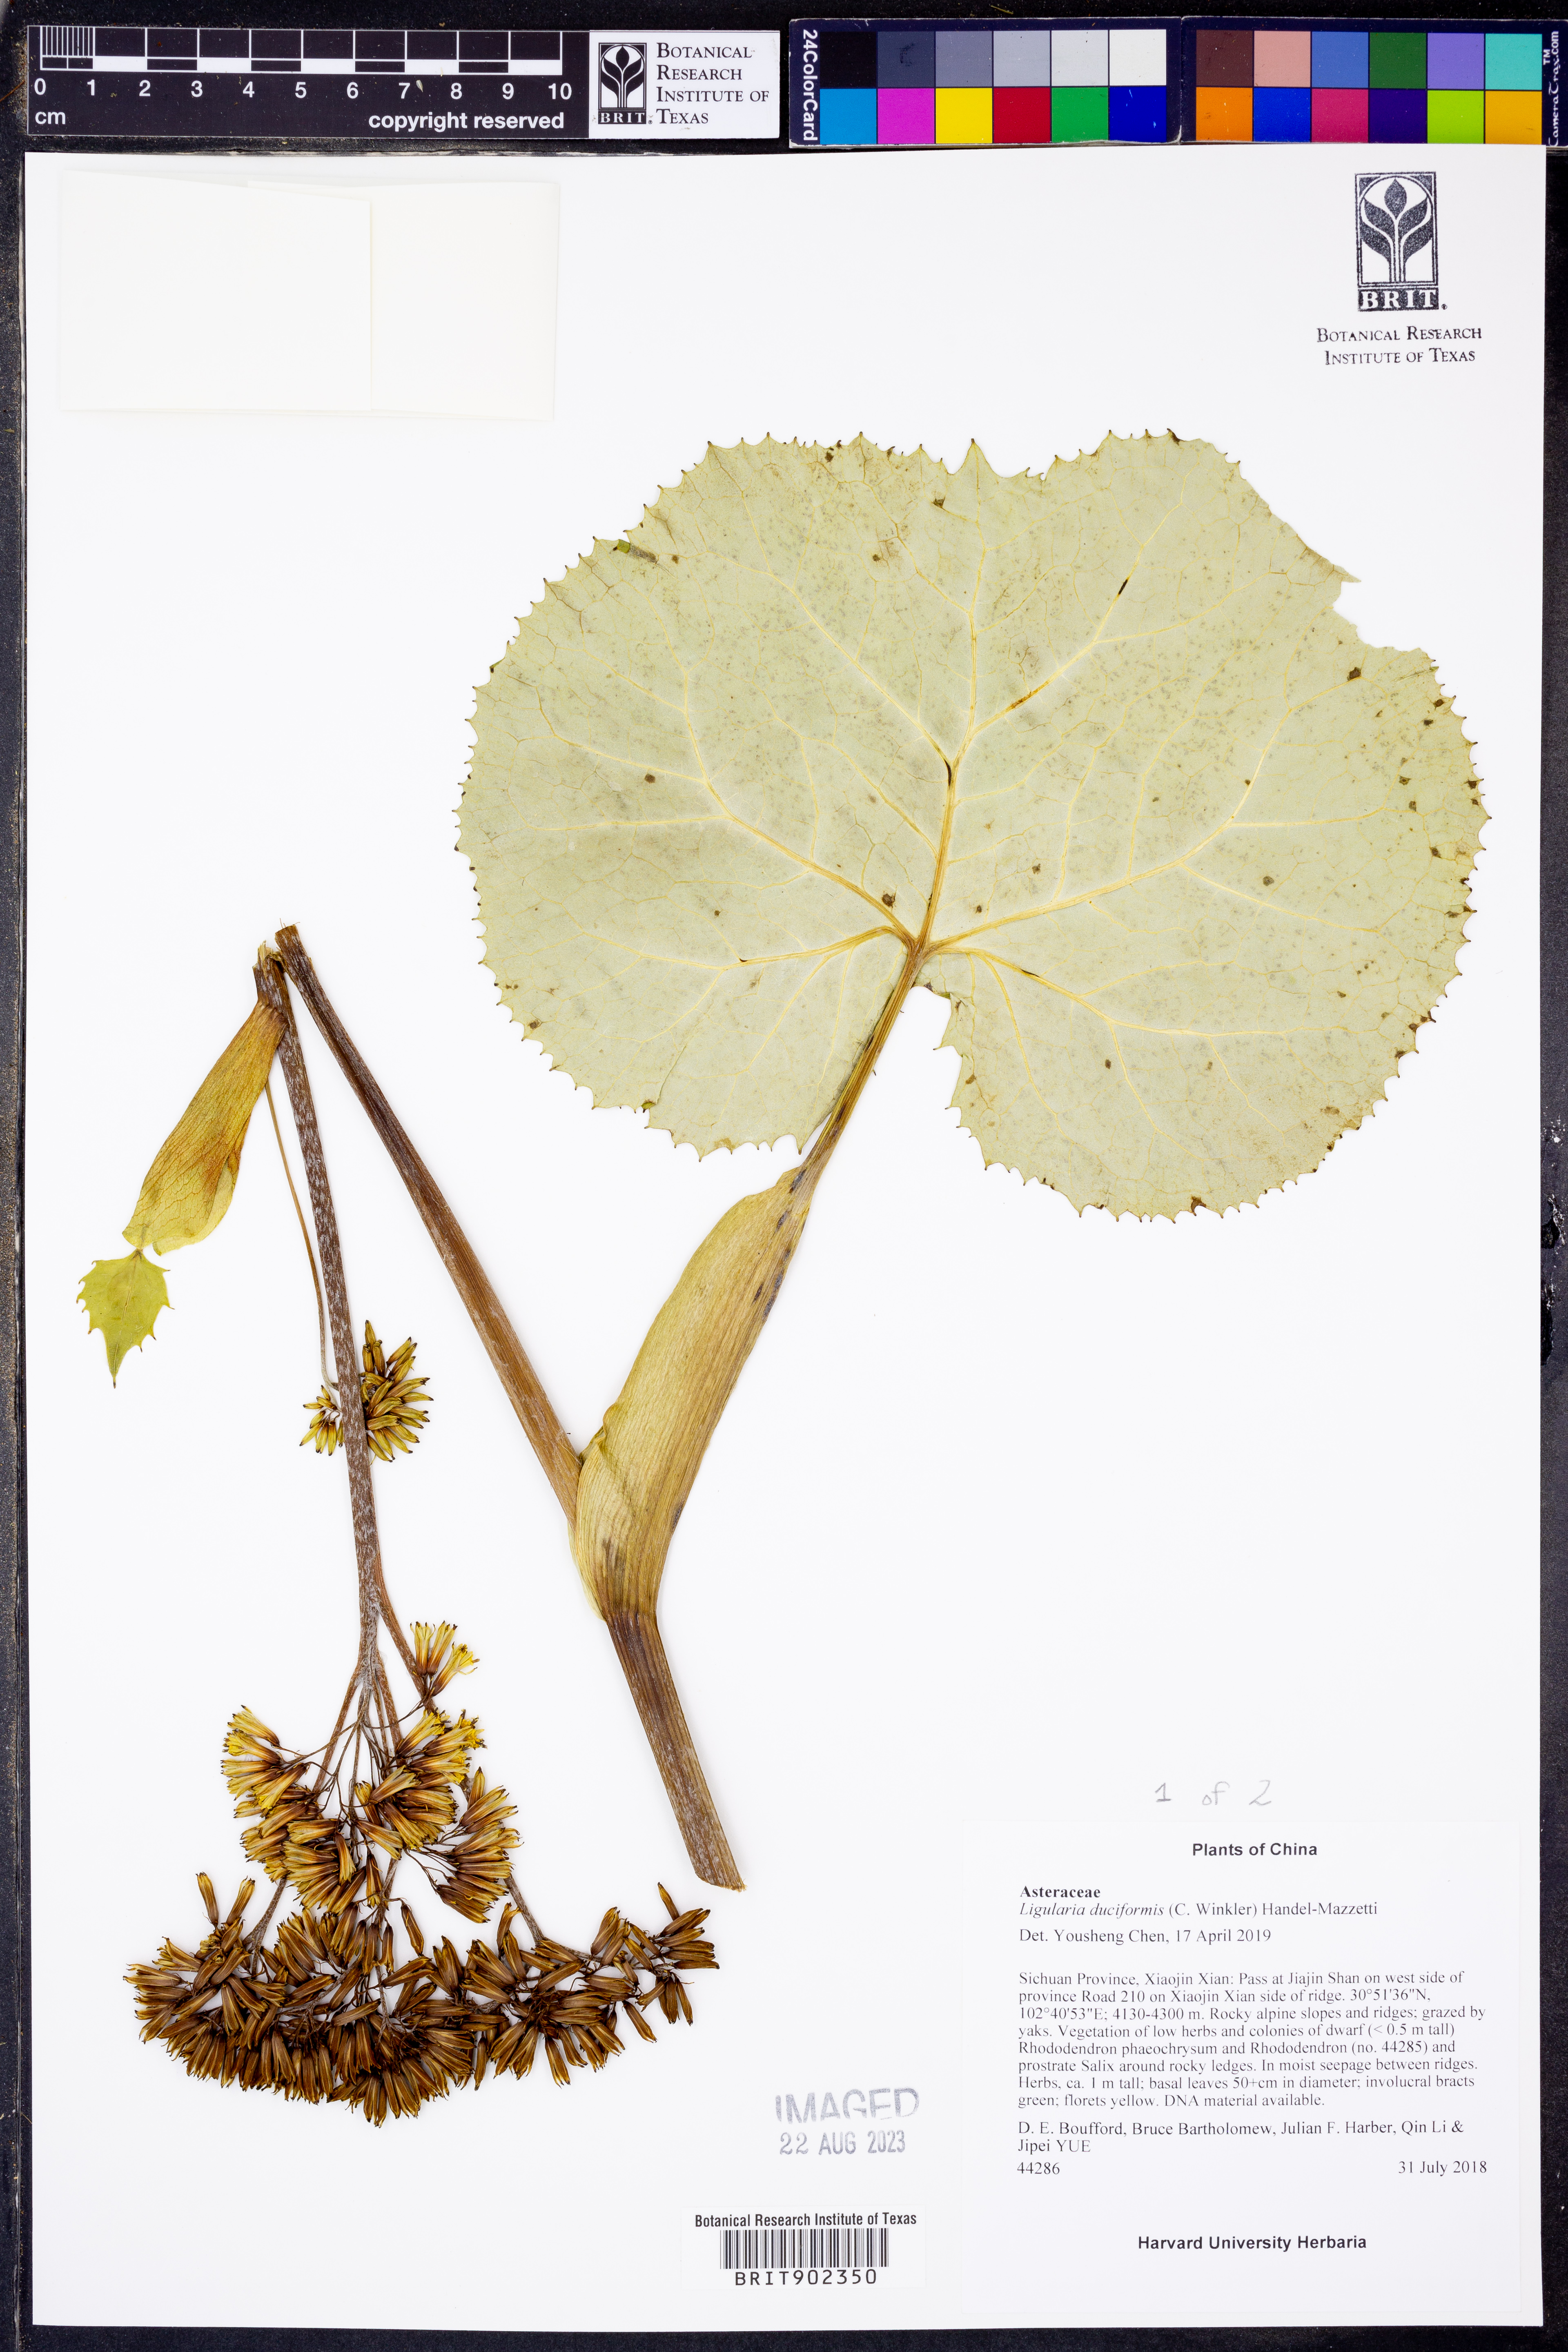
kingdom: Plantae
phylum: Tracheophyta
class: Magnoliopsida
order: Asterales
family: Asteraceae
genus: Ligularia
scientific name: Ligularia
